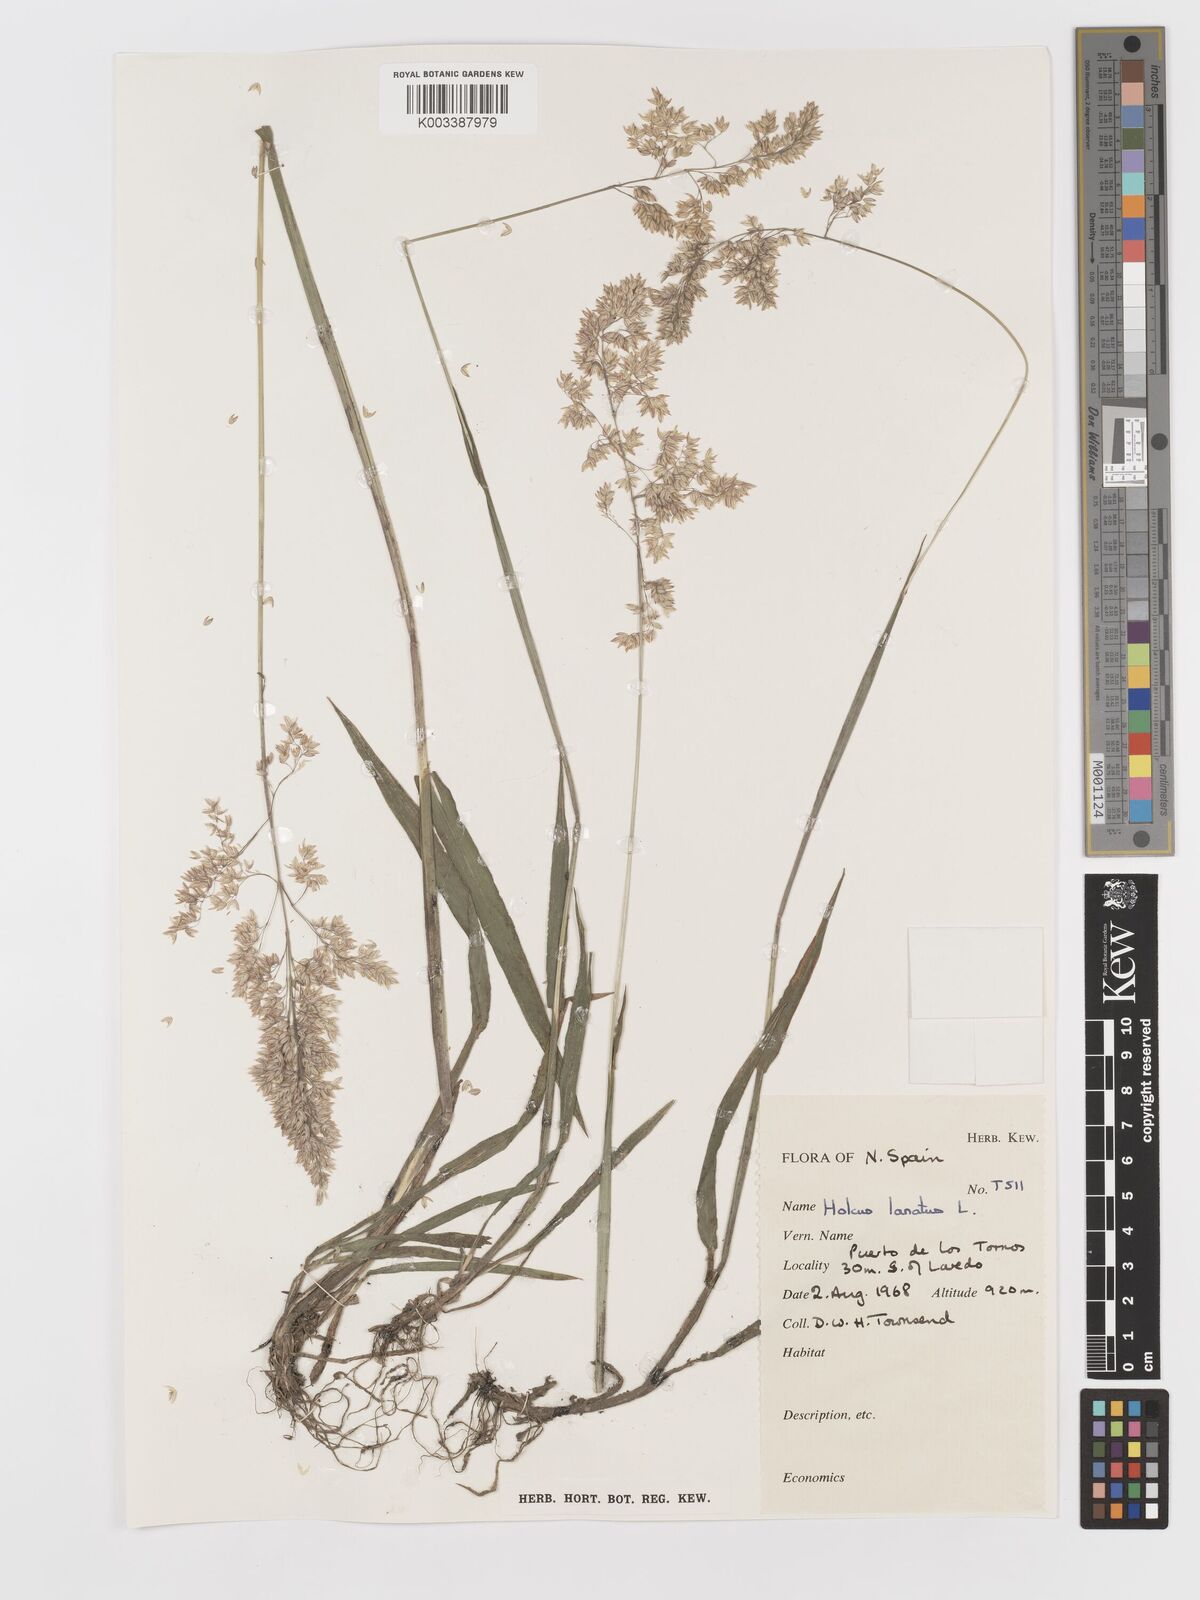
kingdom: Plantae
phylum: Tracheophyta
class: Liliopsida
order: Poales
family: Poaceae
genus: Holcus
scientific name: Holcus lanatus
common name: Yorkshire-fog
